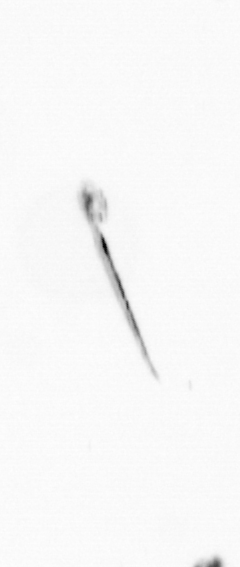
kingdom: Chromista
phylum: Ochrophyta
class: Bacillariophyceae
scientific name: Bacillariophyceae
